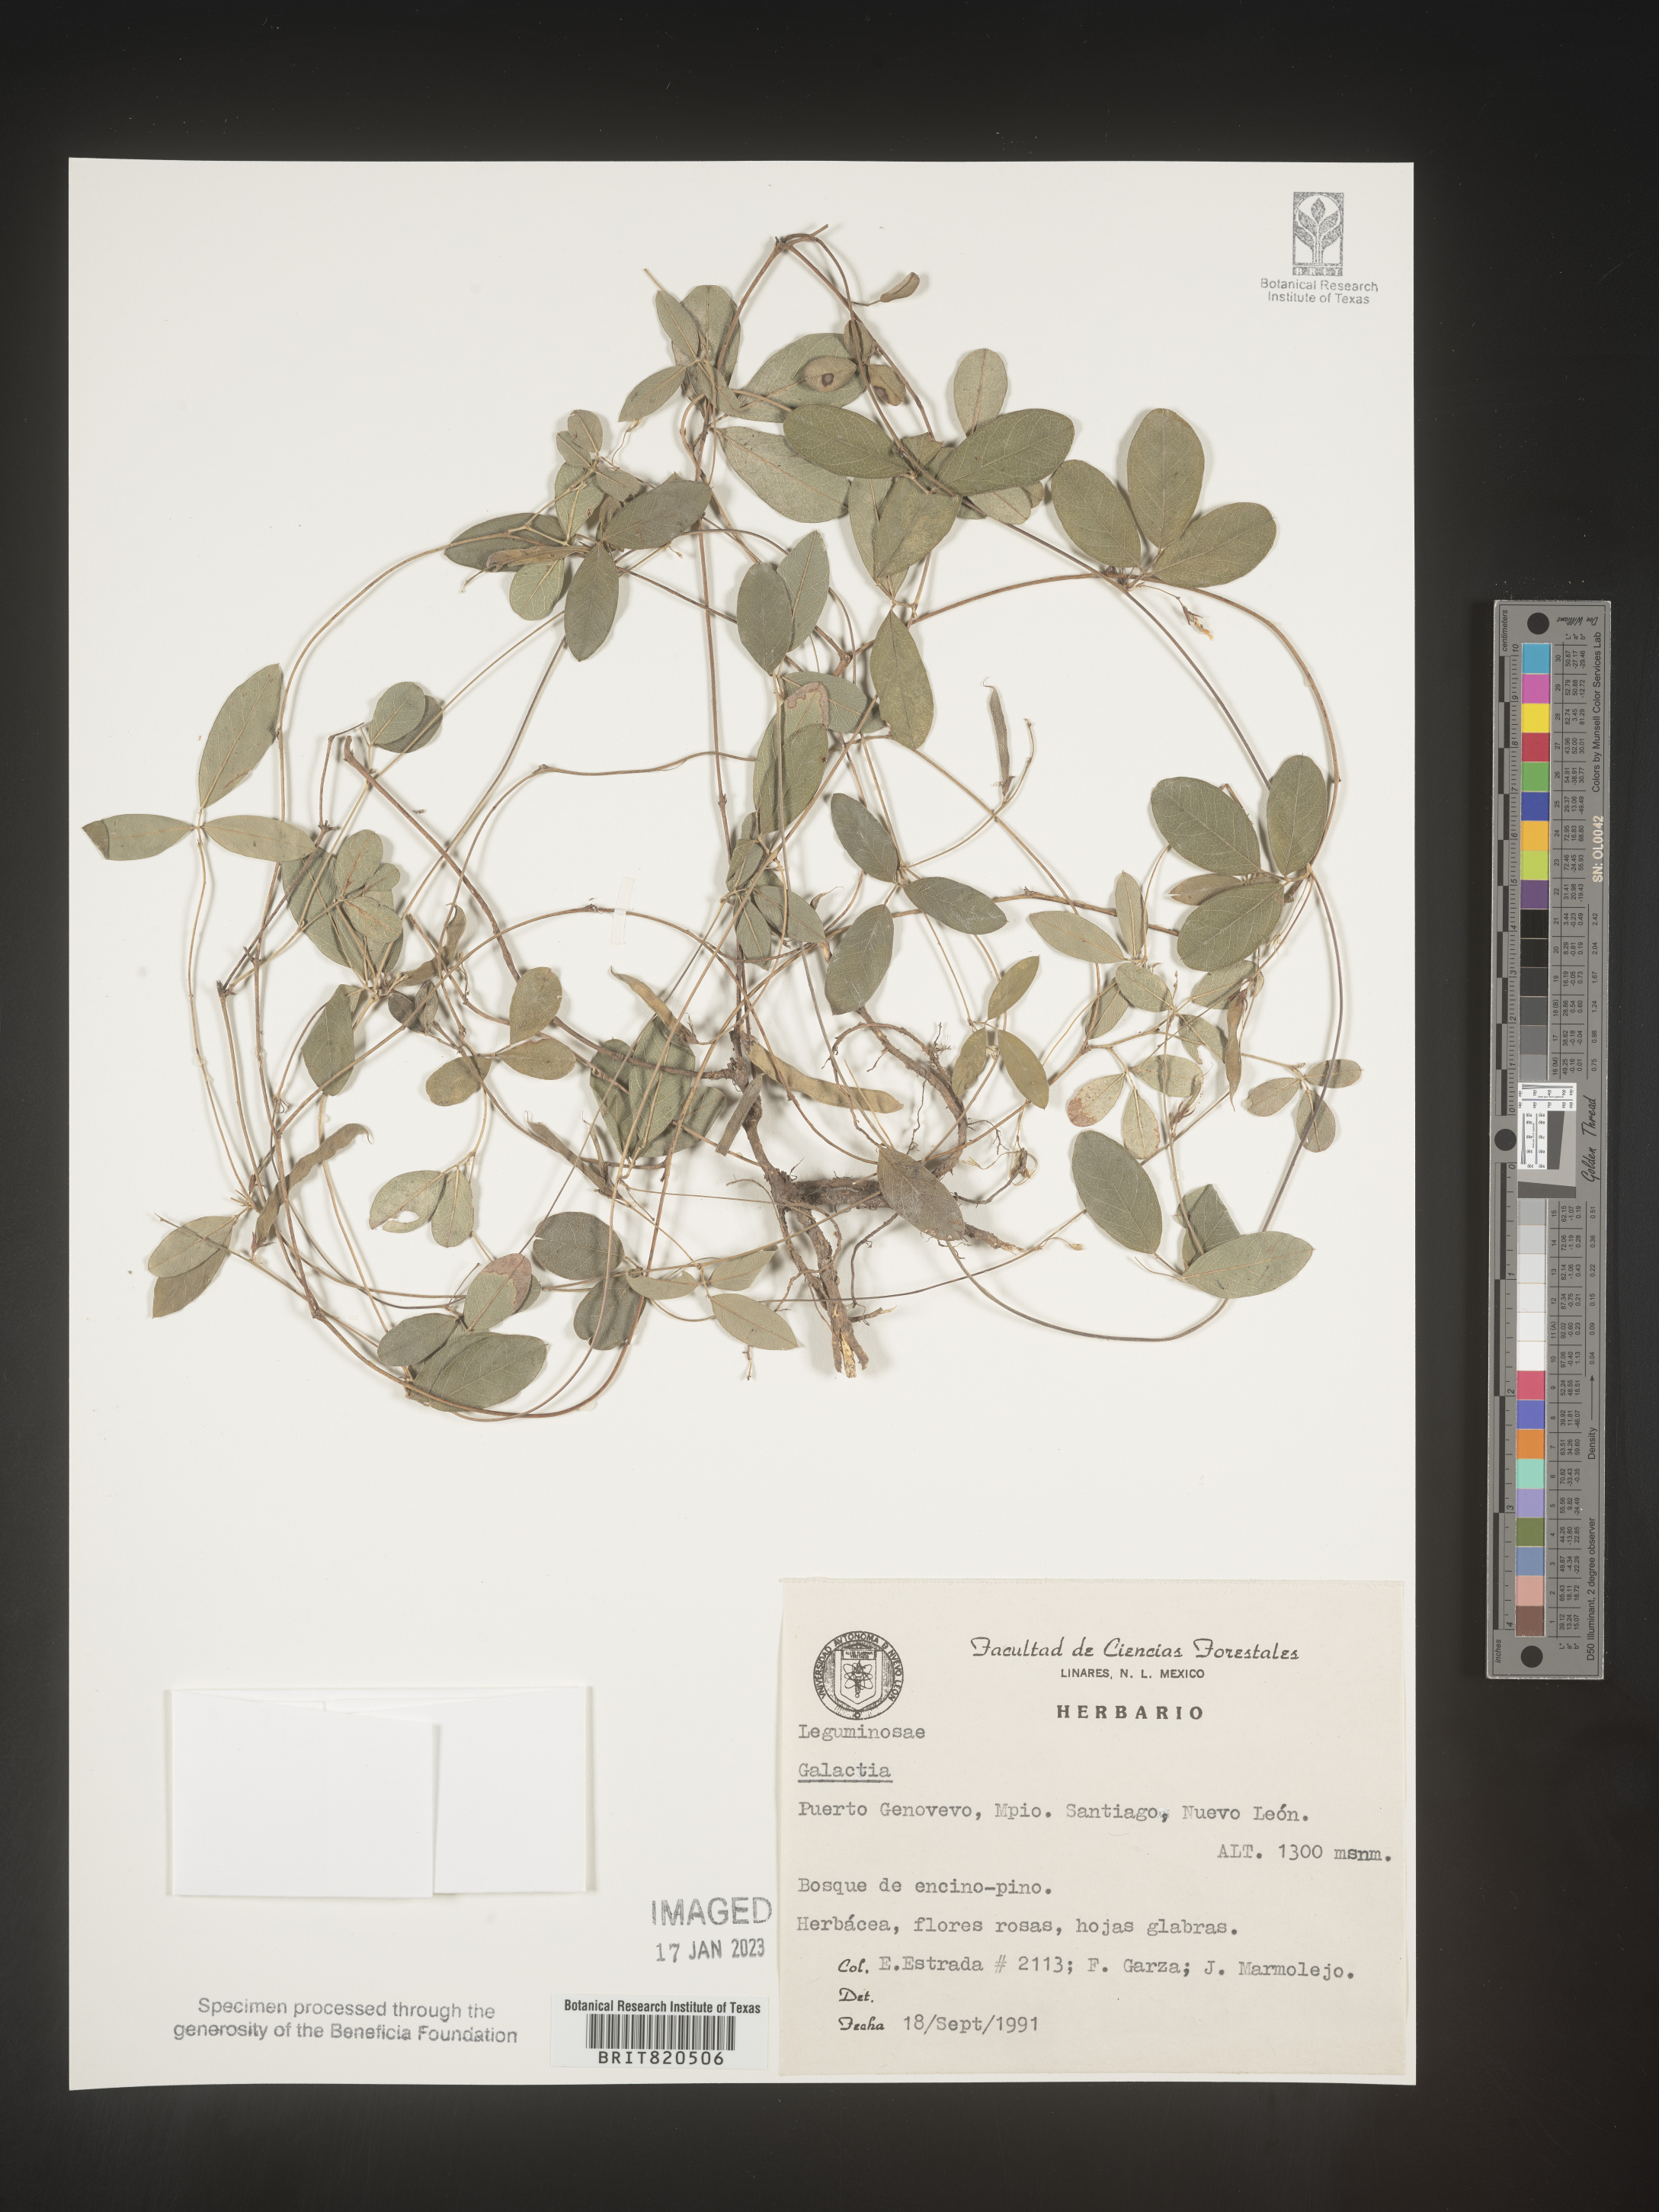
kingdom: Plantae
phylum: Tracheophyta
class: Magnoliopsida
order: Fabales
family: Fabaceae
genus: Galactia
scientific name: Galactia
